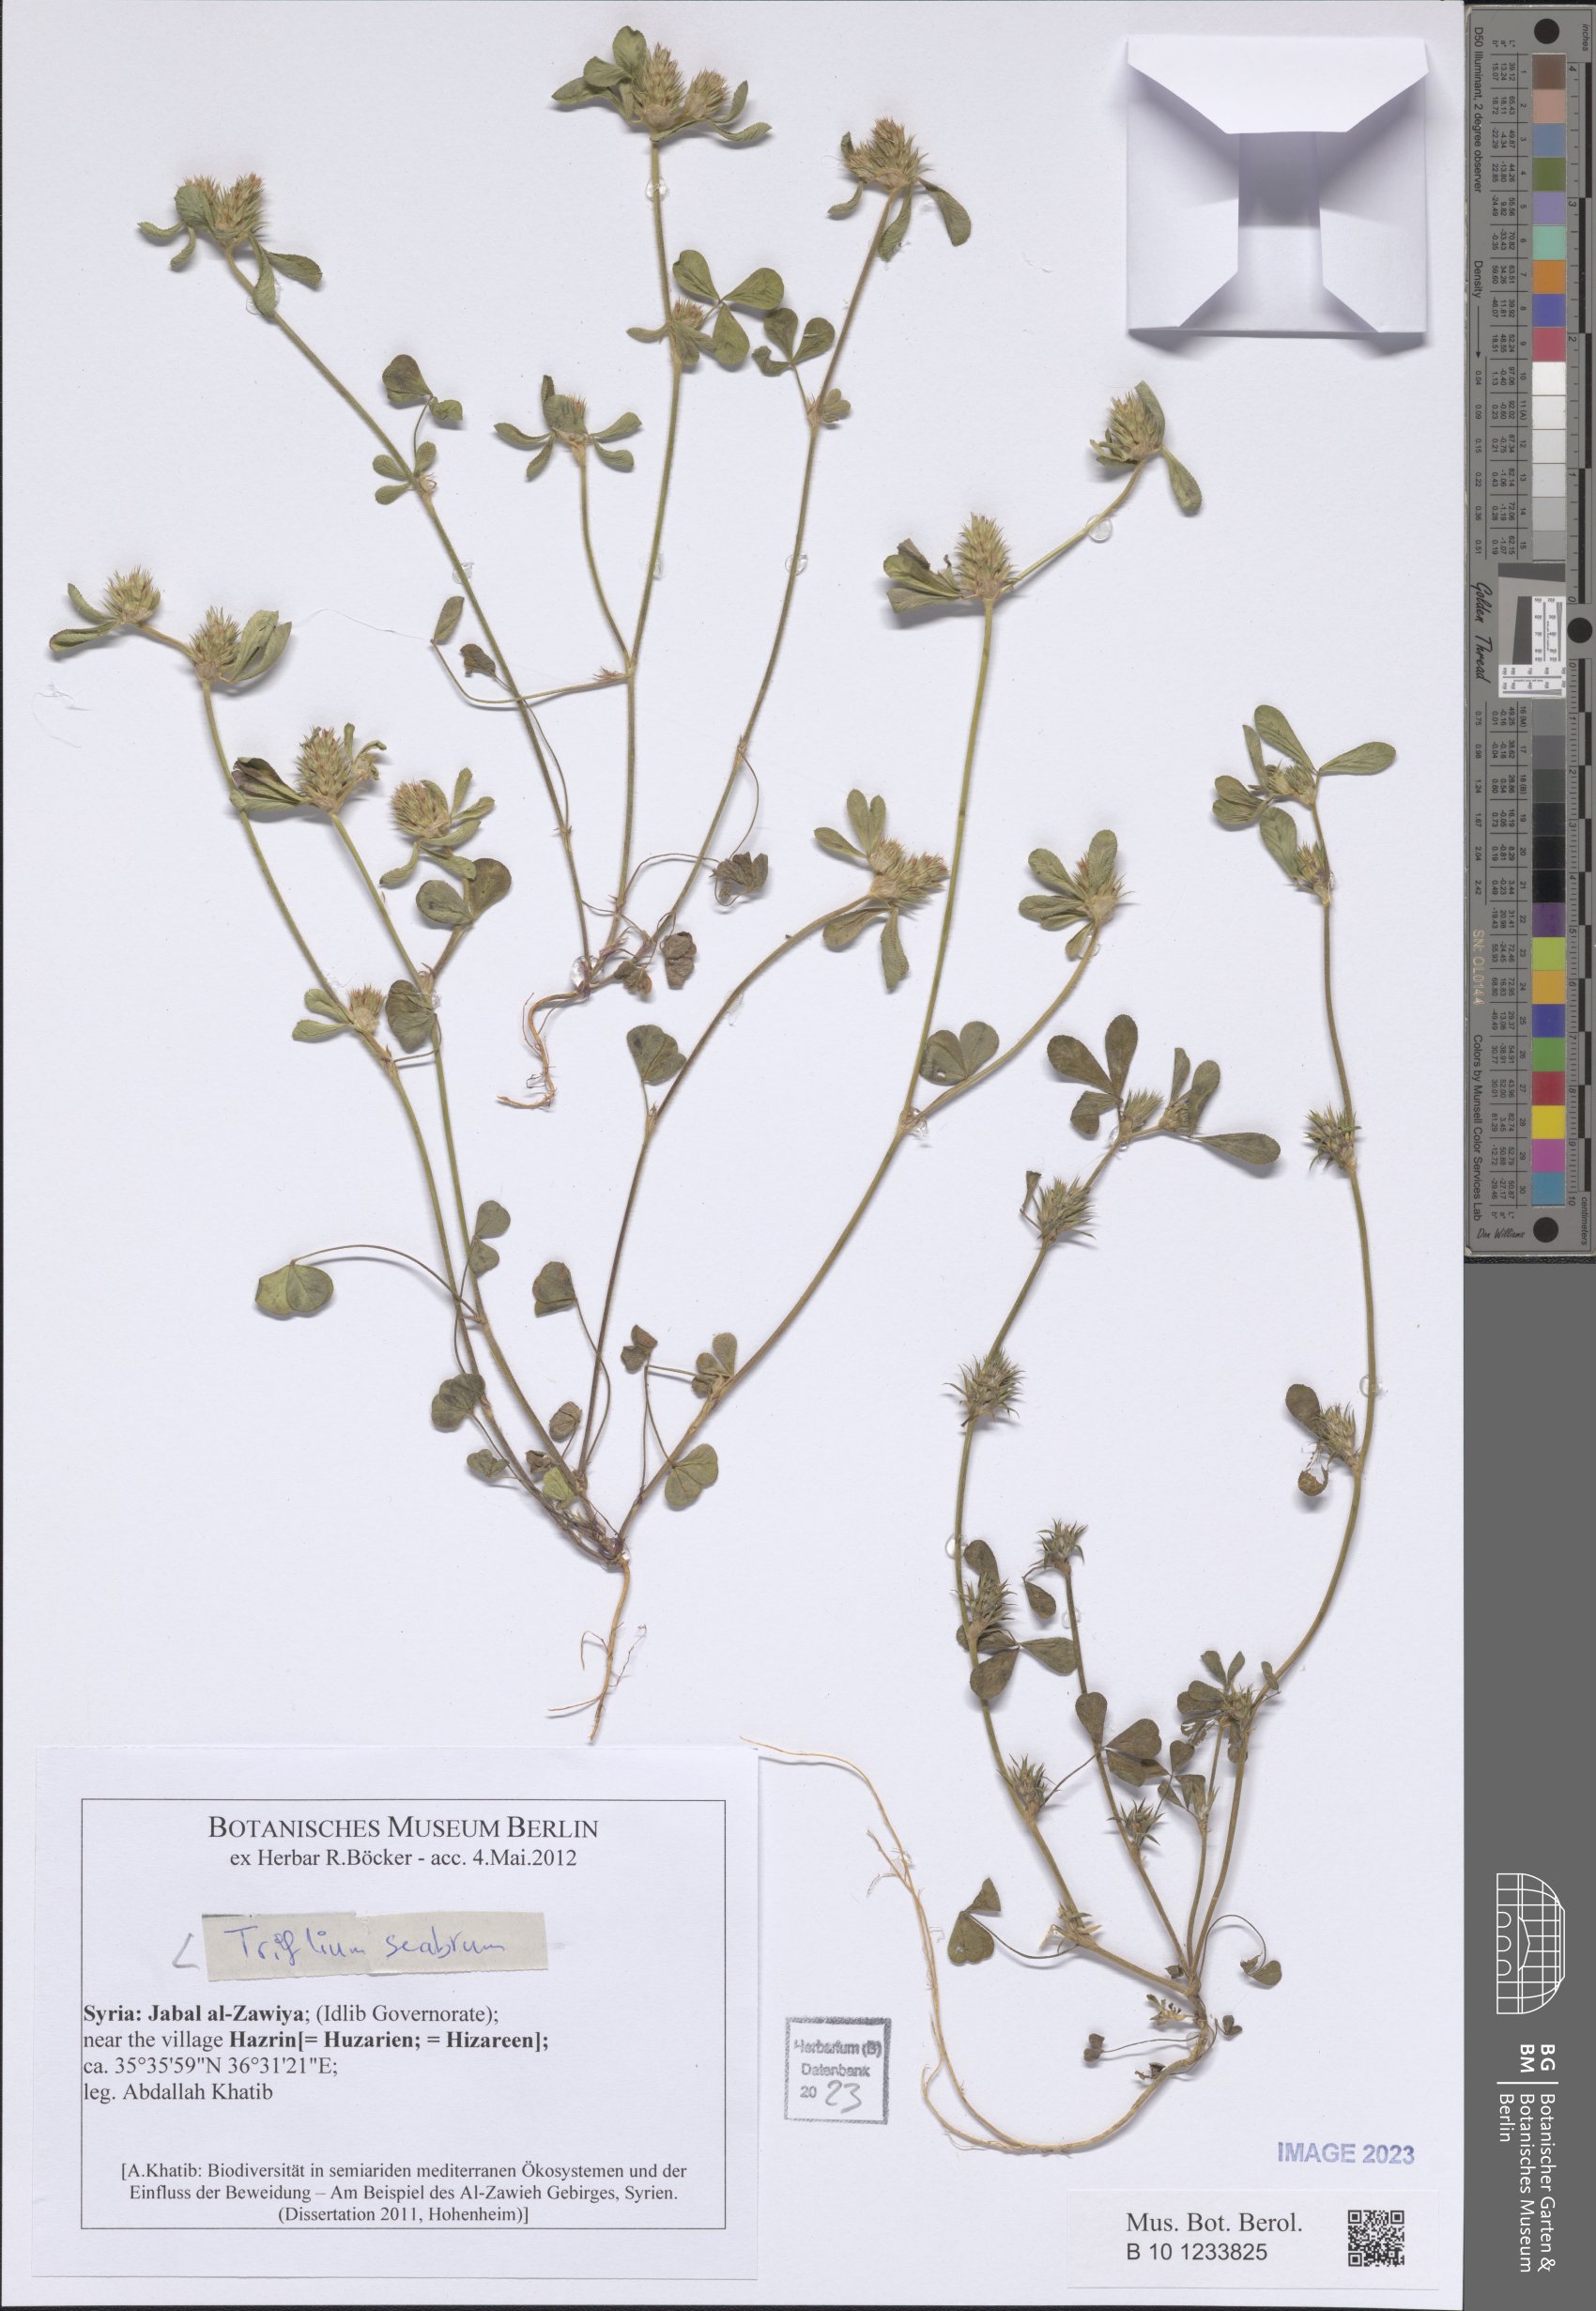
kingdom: Plantae
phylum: Tracheophyta
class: Magnoliopsida
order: Fabales
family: Fabaceae
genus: Trifolium
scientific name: Trifolium scabrum
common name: Rough clover
